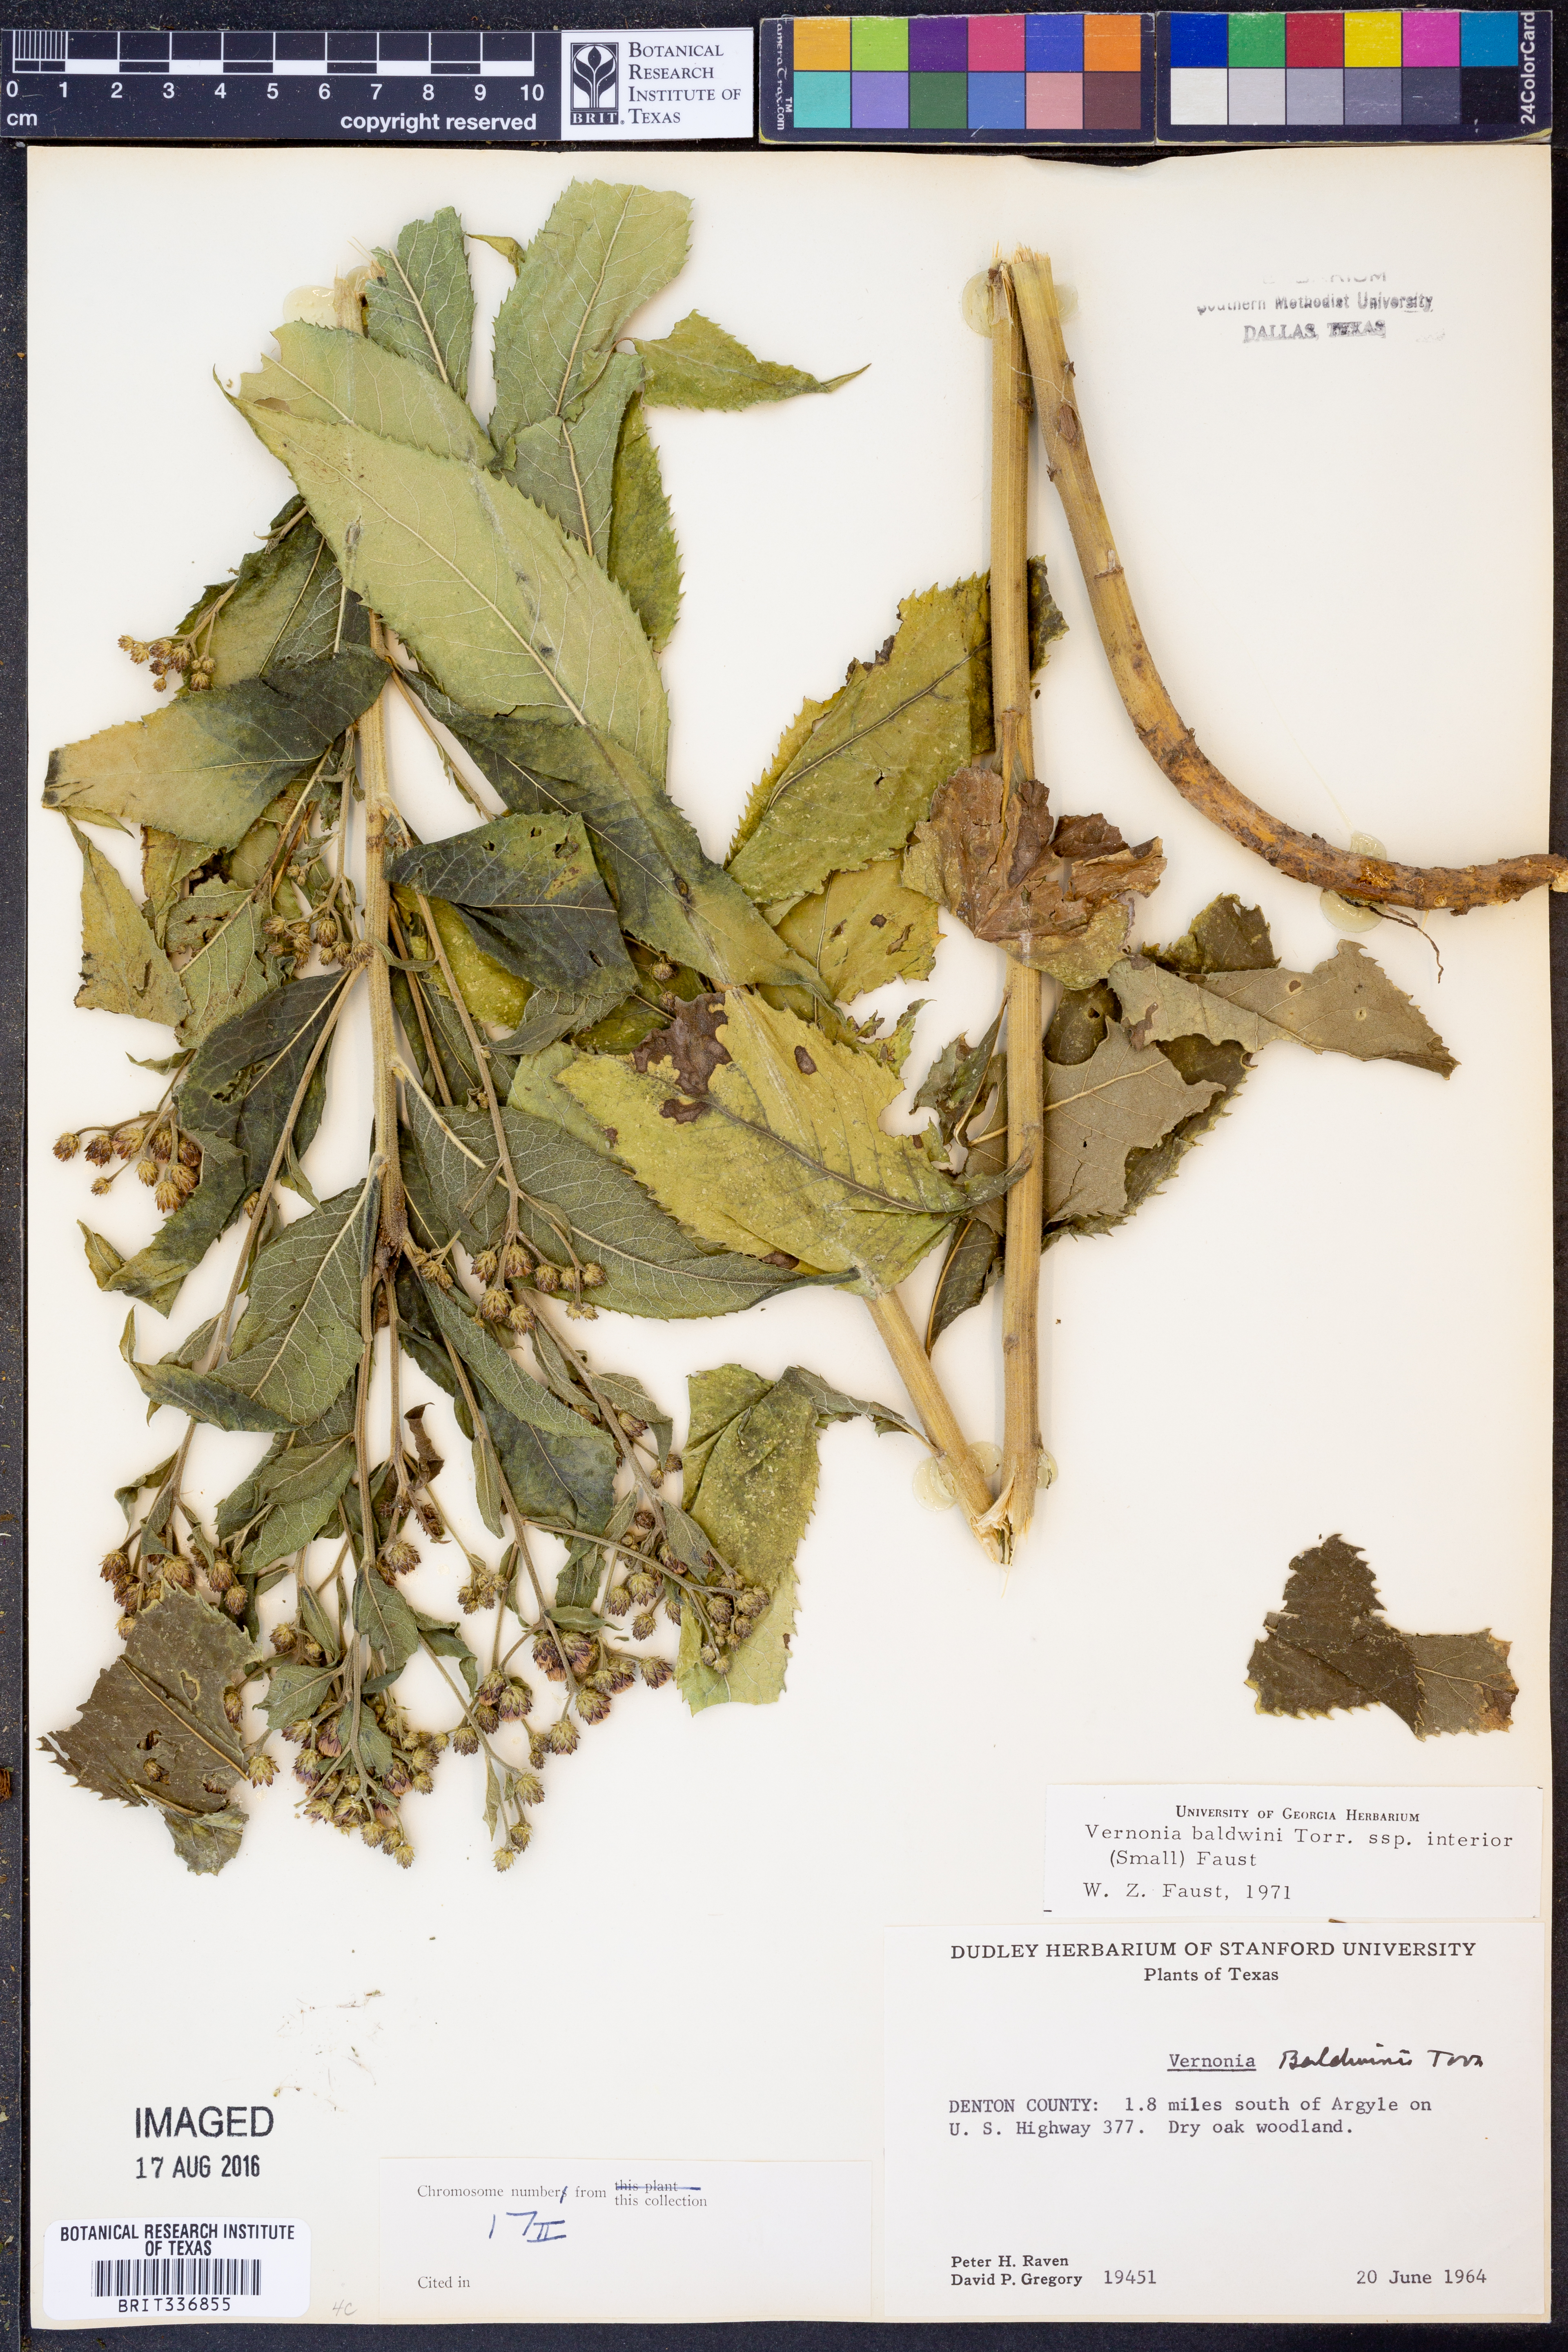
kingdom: Plantae
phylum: Tracheophyta
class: Magnoliopsida
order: Asterales
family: Asteraceae
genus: Vernonia
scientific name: Vernonia baldwinii
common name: Western ironweed
